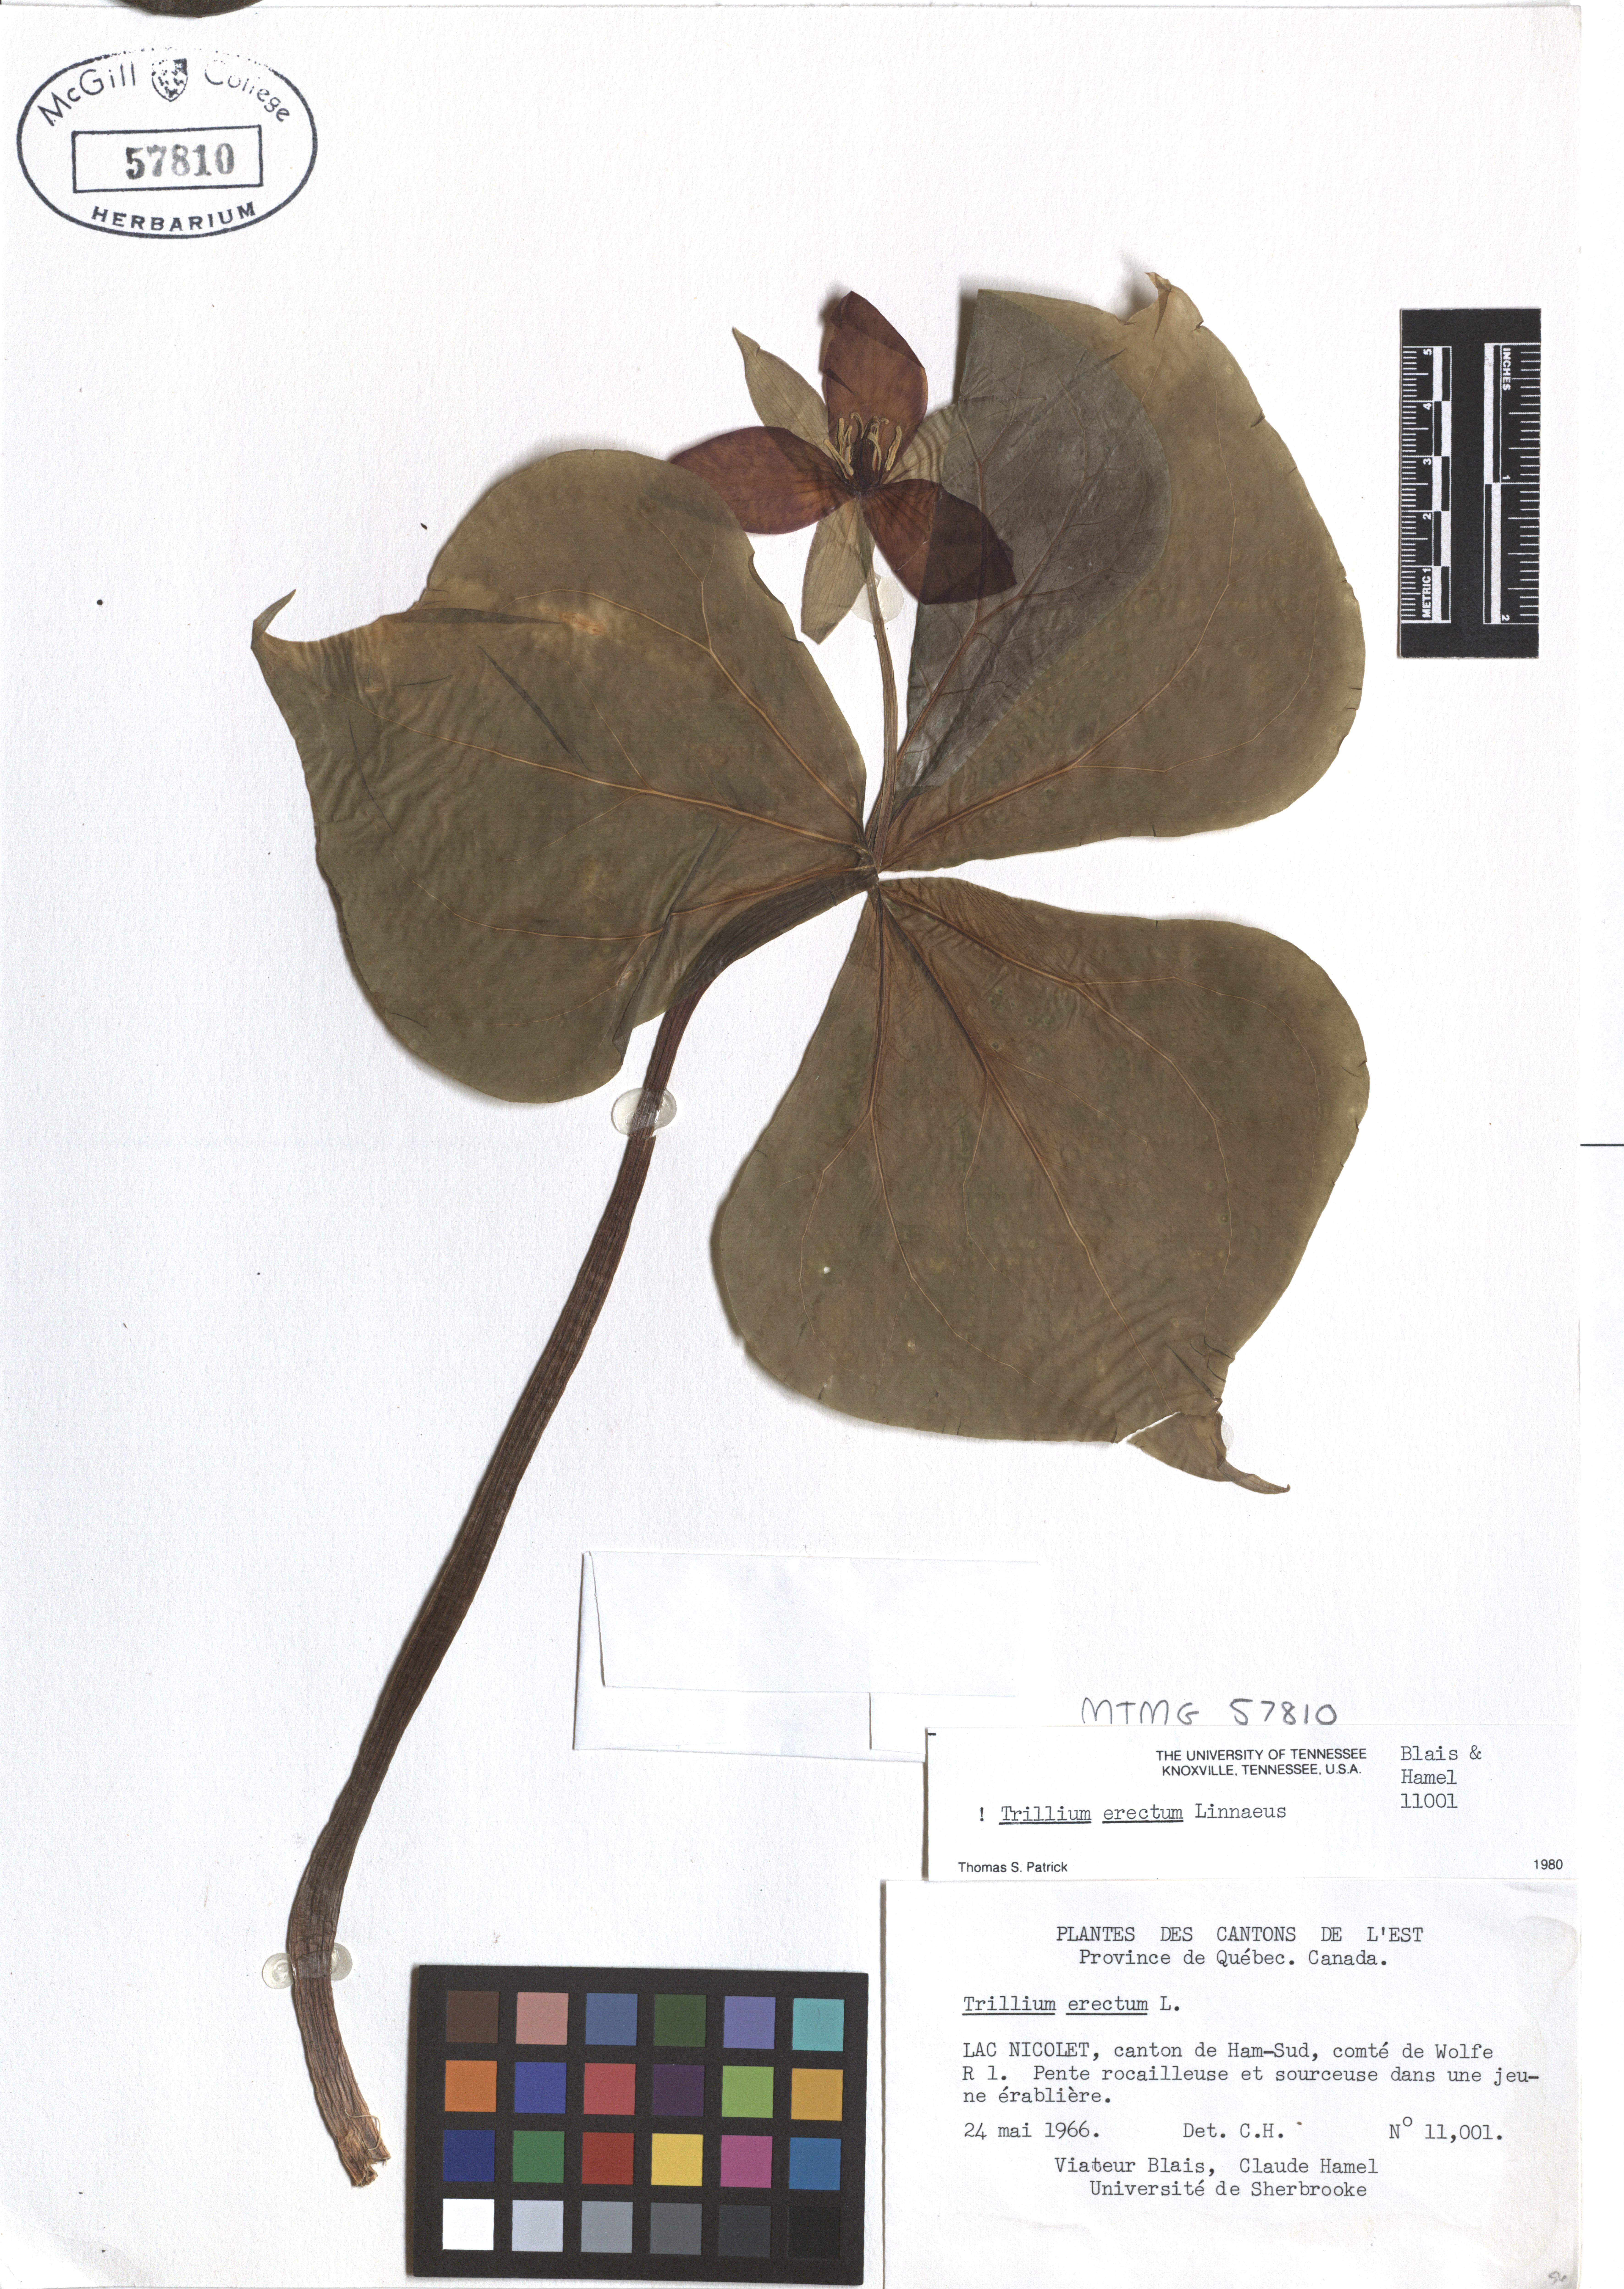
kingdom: Plantae
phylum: Tracheophyta
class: Liliopsida
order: Liliales
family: Melanthiaceae
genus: Trillium
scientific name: Trillium erectum
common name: Purple trillium
